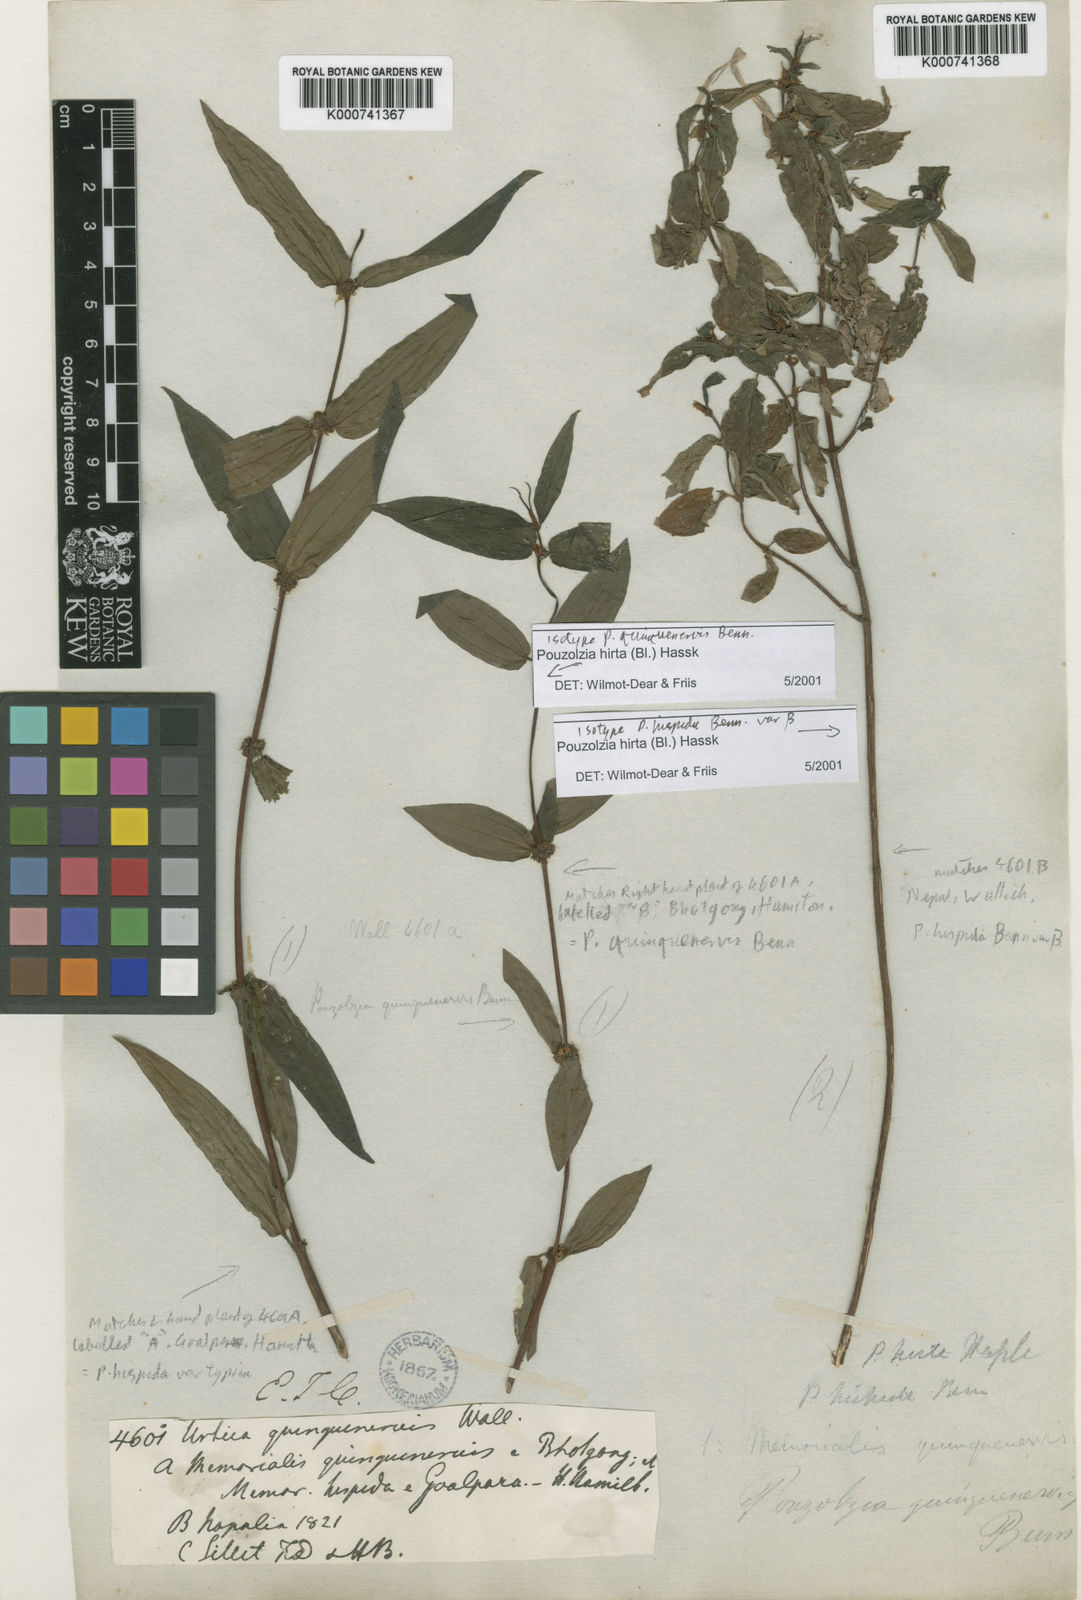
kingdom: Plantae
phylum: Tracheophyta
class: Magnoliopsida
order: Rosales
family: Urticaceae
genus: Gonostegia
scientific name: Gonostegia triandra
